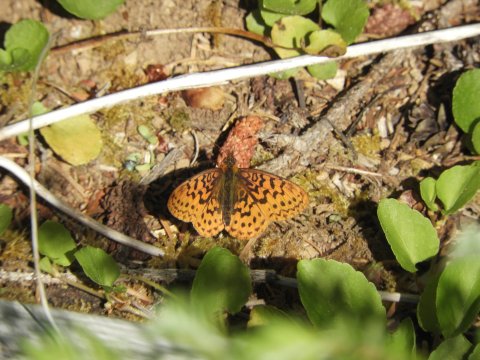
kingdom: Animalia
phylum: Arthropoda
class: Insecta
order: Lepidoptera
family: Nymphalidae
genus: Boloria
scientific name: Boloria epithore
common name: Pacific Fritillary
